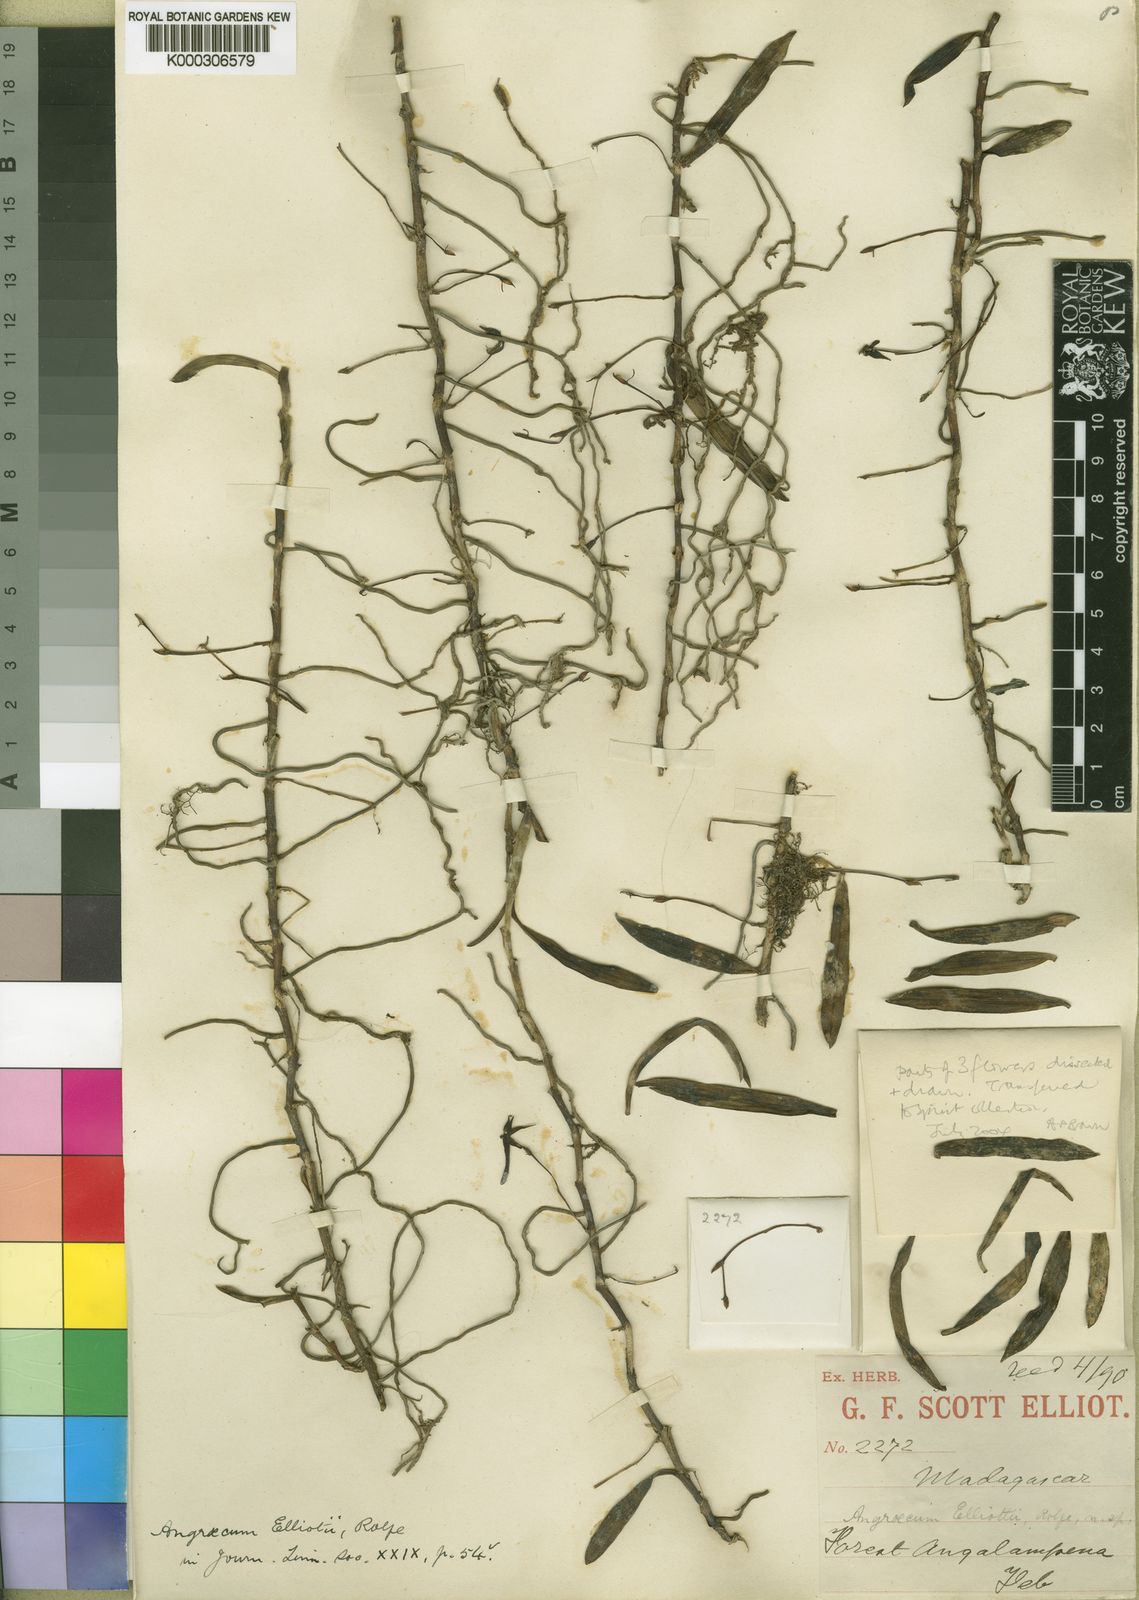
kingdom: Plantae
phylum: Tracheophyta
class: Liliopsida
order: Asparagales
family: Orchidaceae
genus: Angraecum
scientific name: Angraecum elliotii
